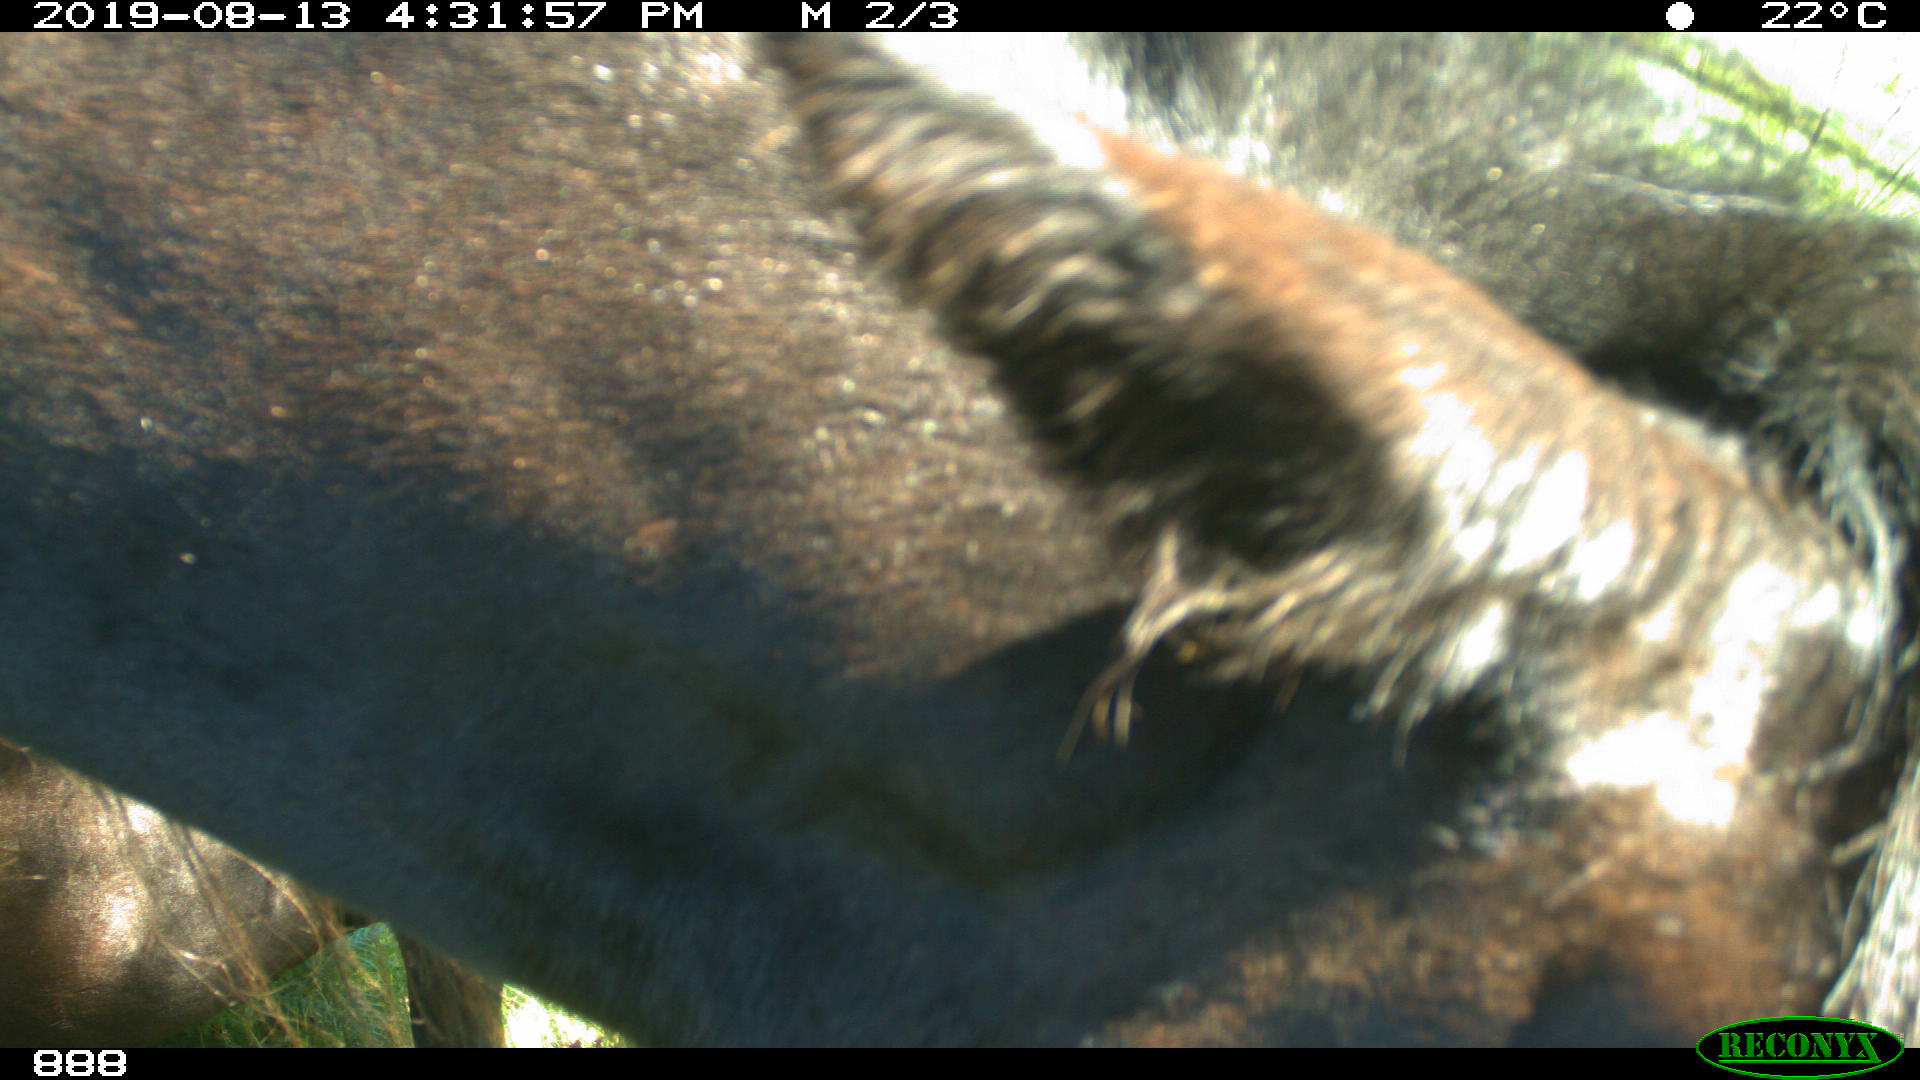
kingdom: Animalia
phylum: Chordata
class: Mammalia
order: Perissodactyla
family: Equidae
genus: Equus
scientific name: Equus caballus
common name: Horse
